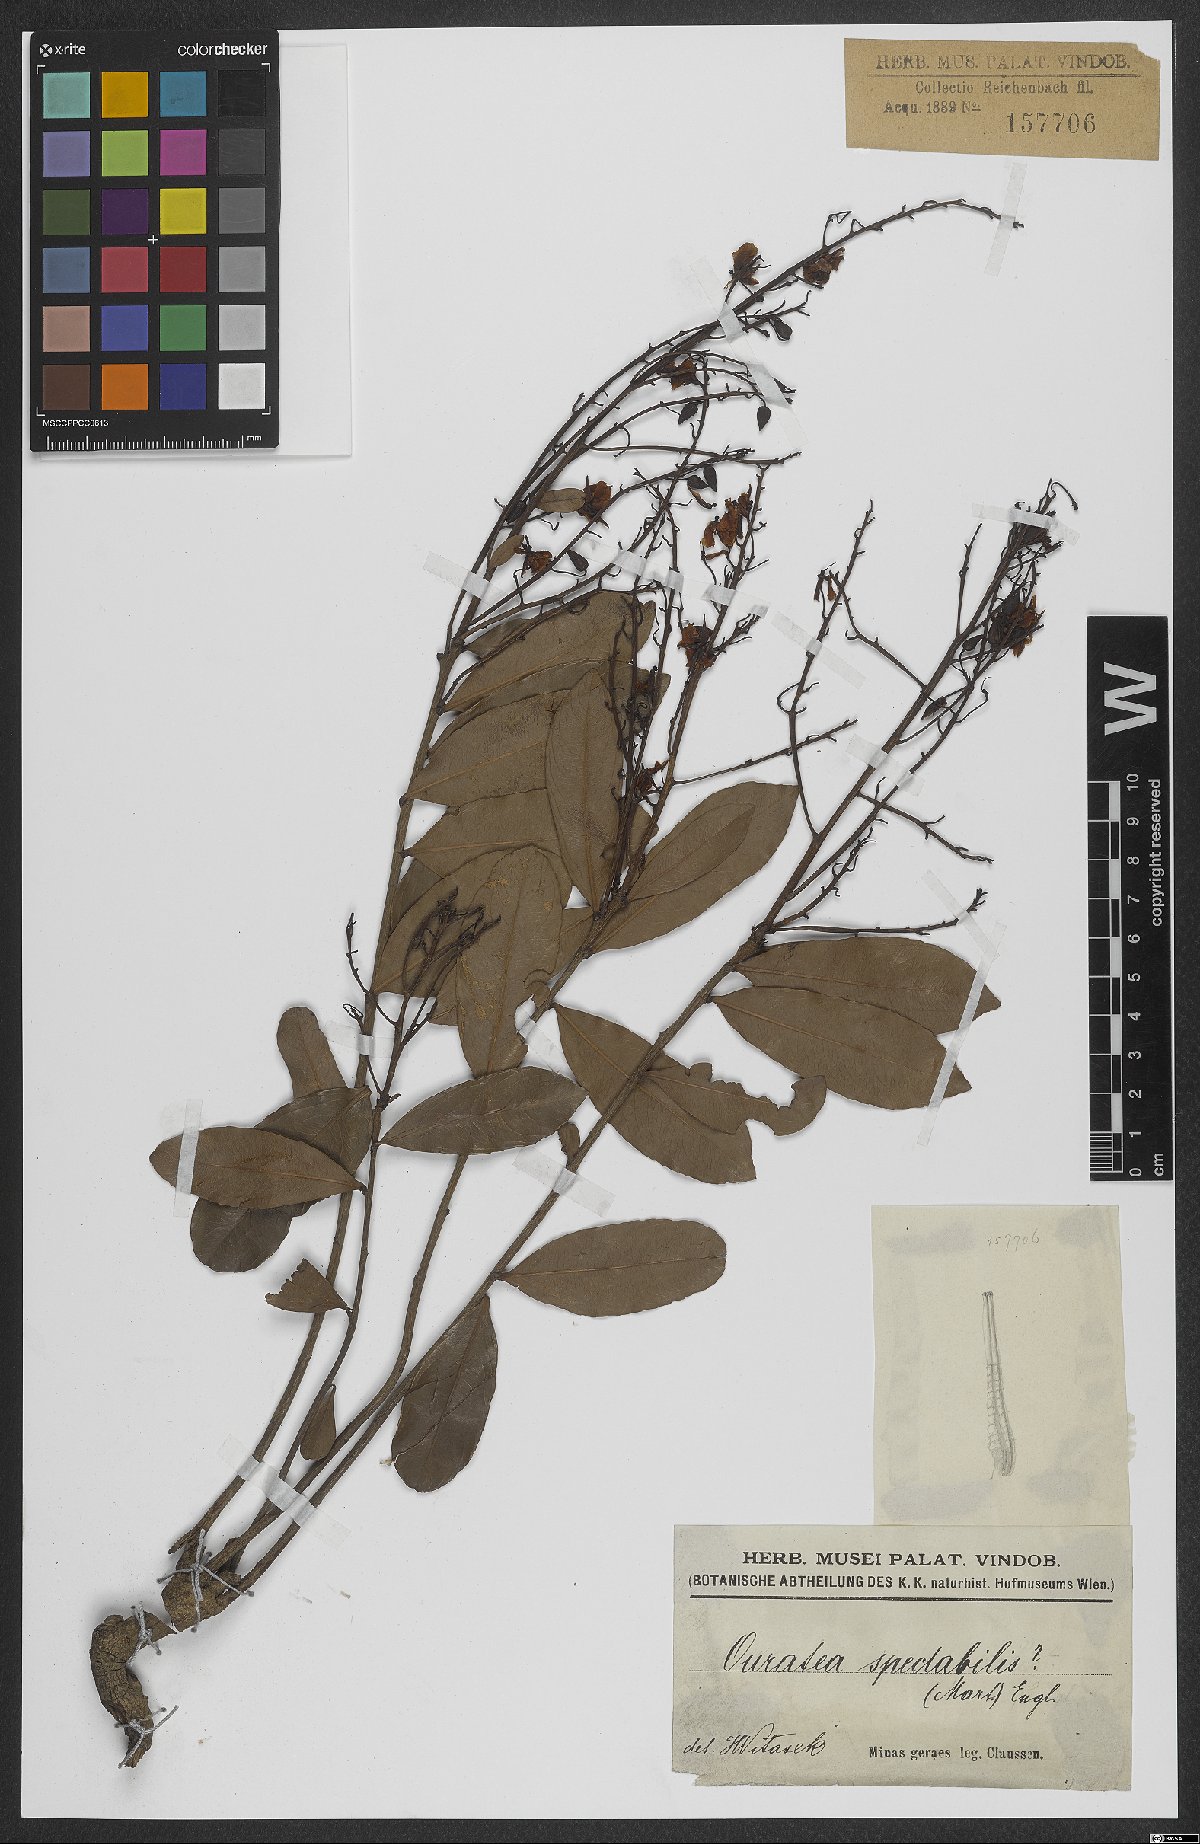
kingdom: Plantae
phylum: Tracheophyta
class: Magnoliopsida
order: Malpighiales
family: Ochnaceae
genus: Ouratea
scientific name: Ouratea spectabilis
